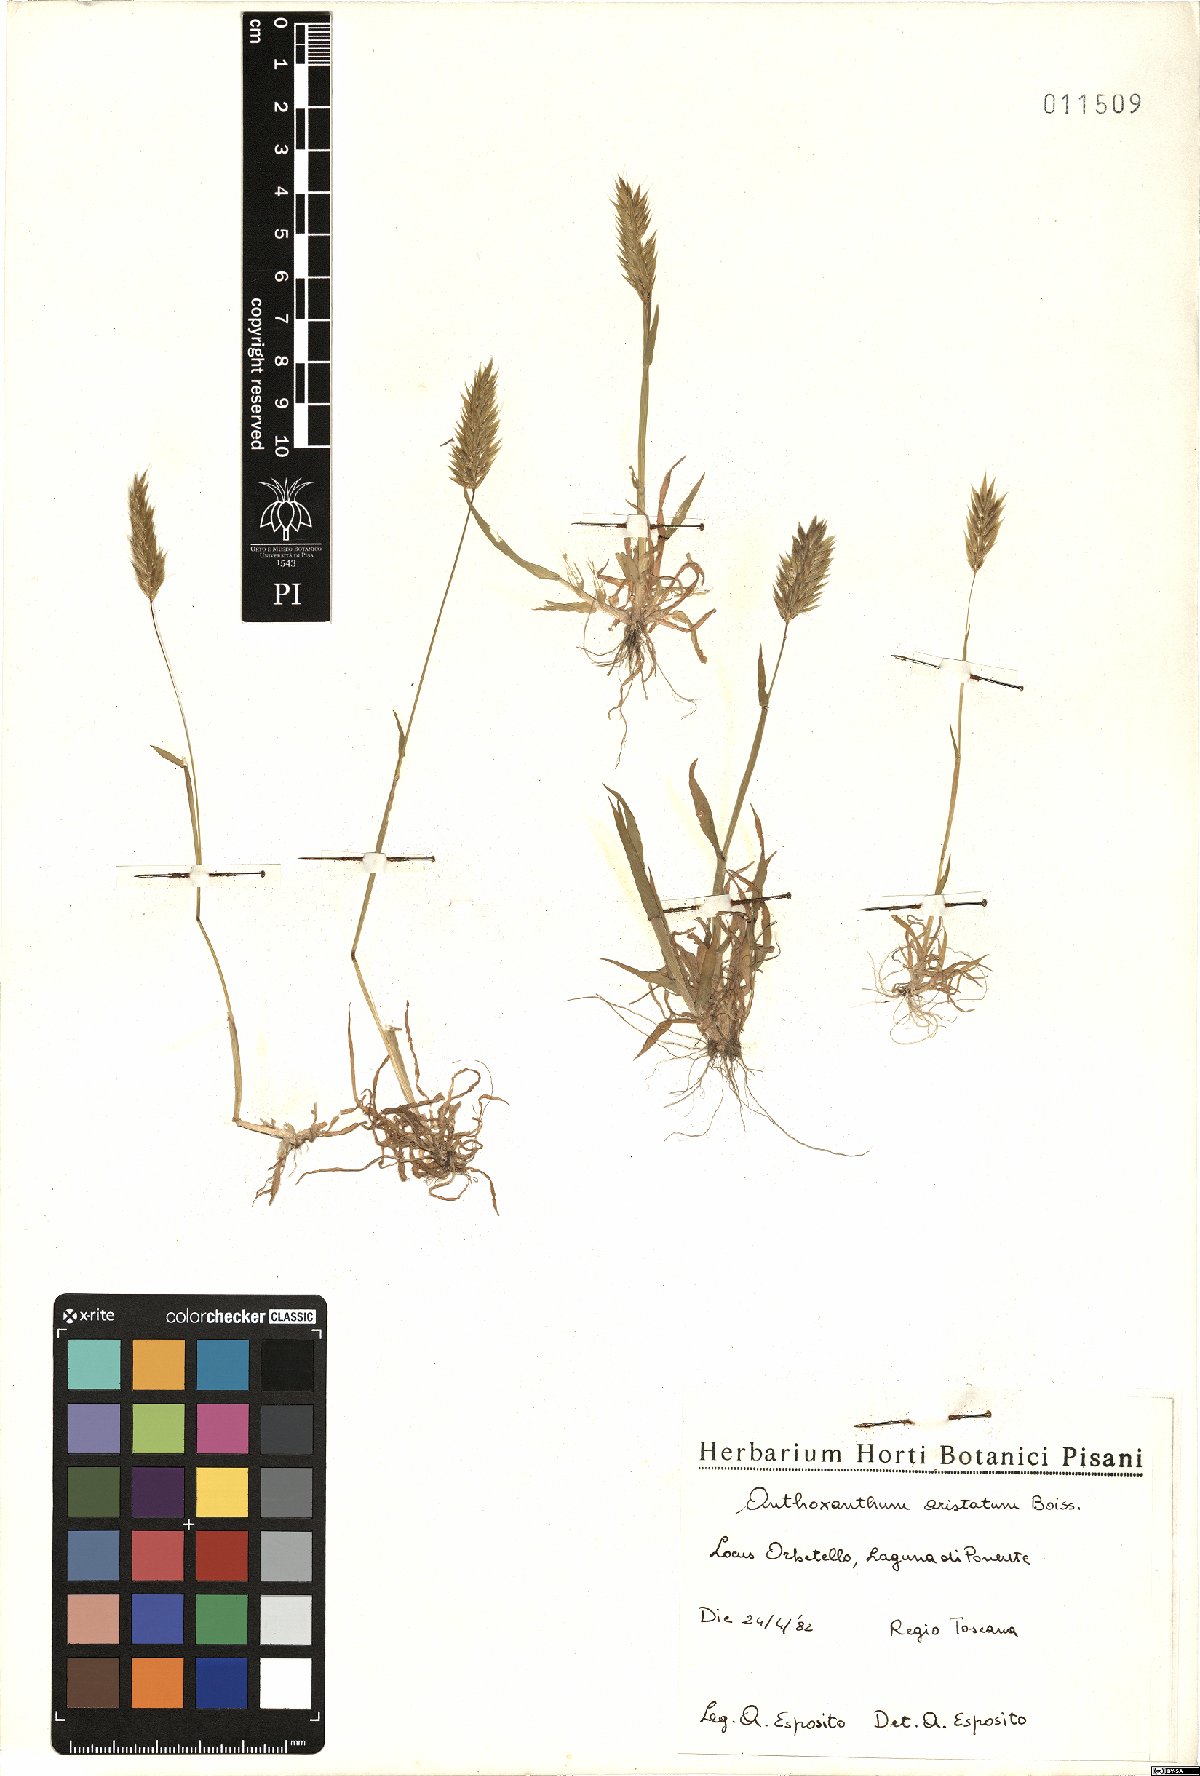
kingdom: Plantae
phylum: Tracheophyta
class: Liliopsida
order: Poales
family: Poaceae
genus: Anthoxanthum
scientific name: Anthoxanthum aristatum
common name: Annual vernal-grass
